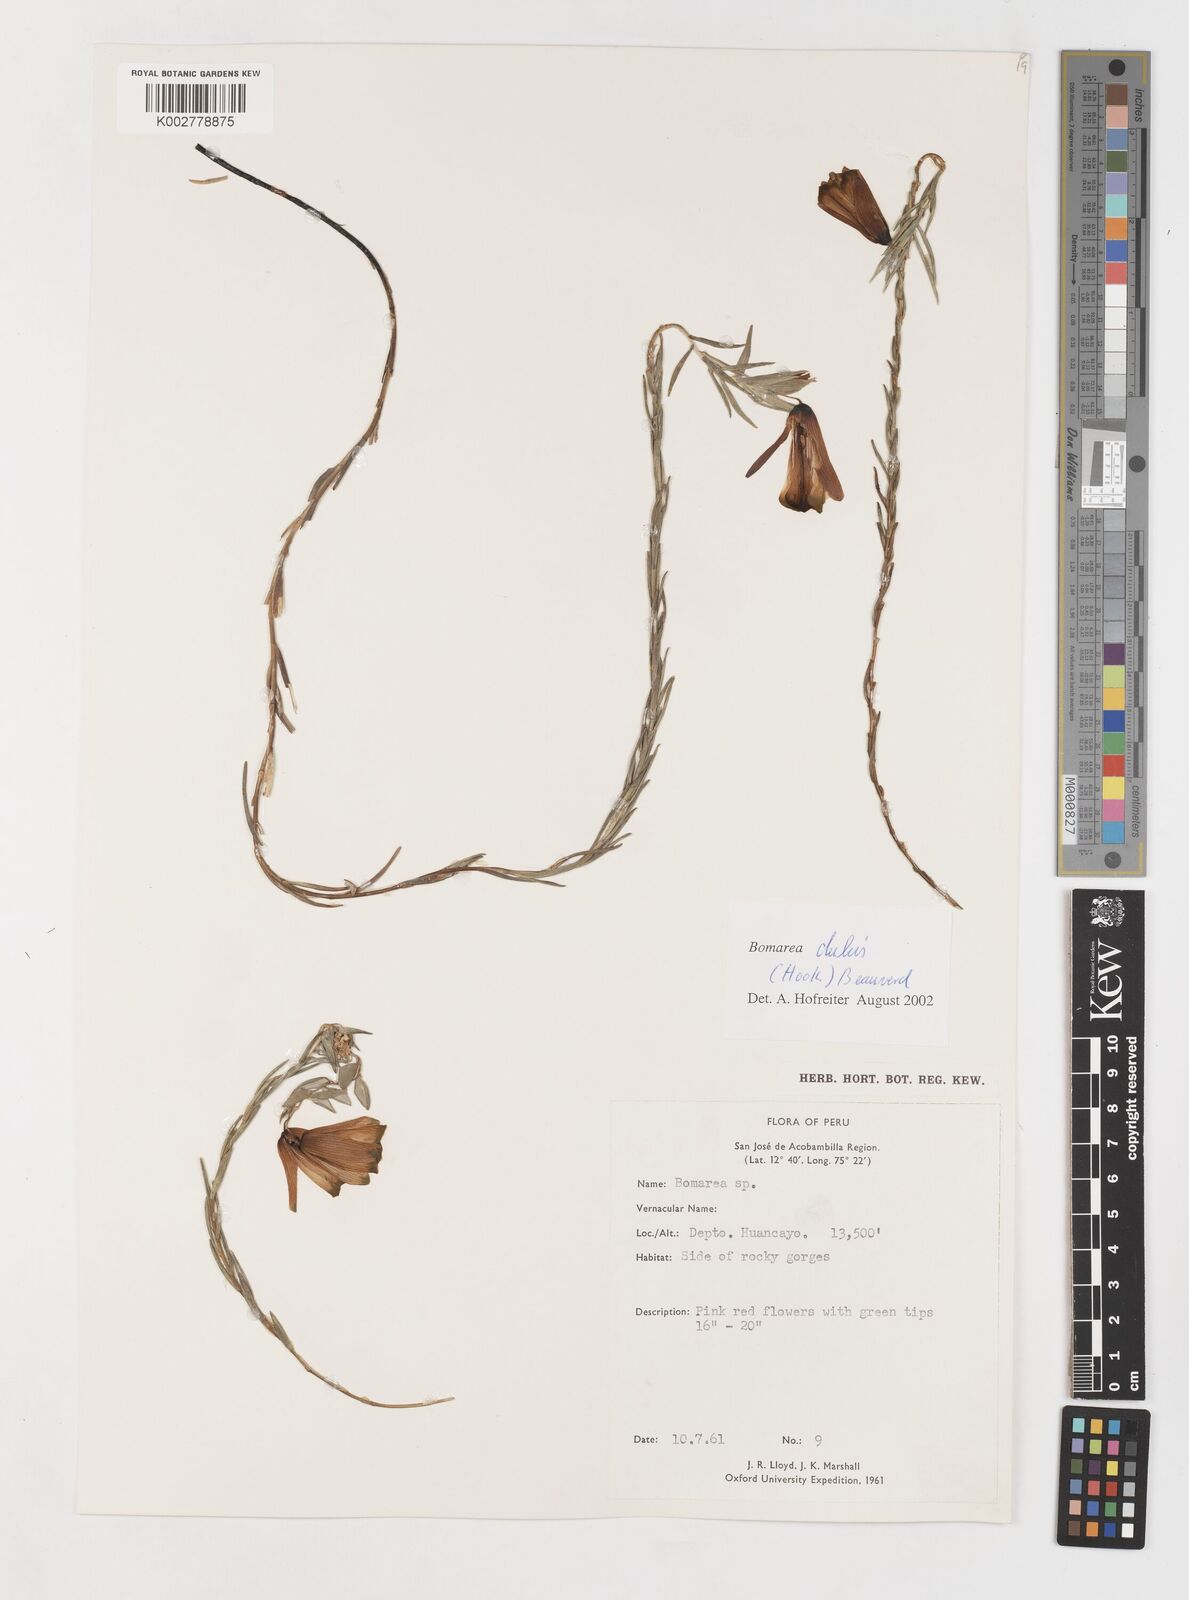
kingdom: Plantae
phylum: Tracheophyta
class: Liliopsida
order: Liliales
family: Alstroemeriaceae
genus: Bomarea
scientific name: Bomarea dulcis
